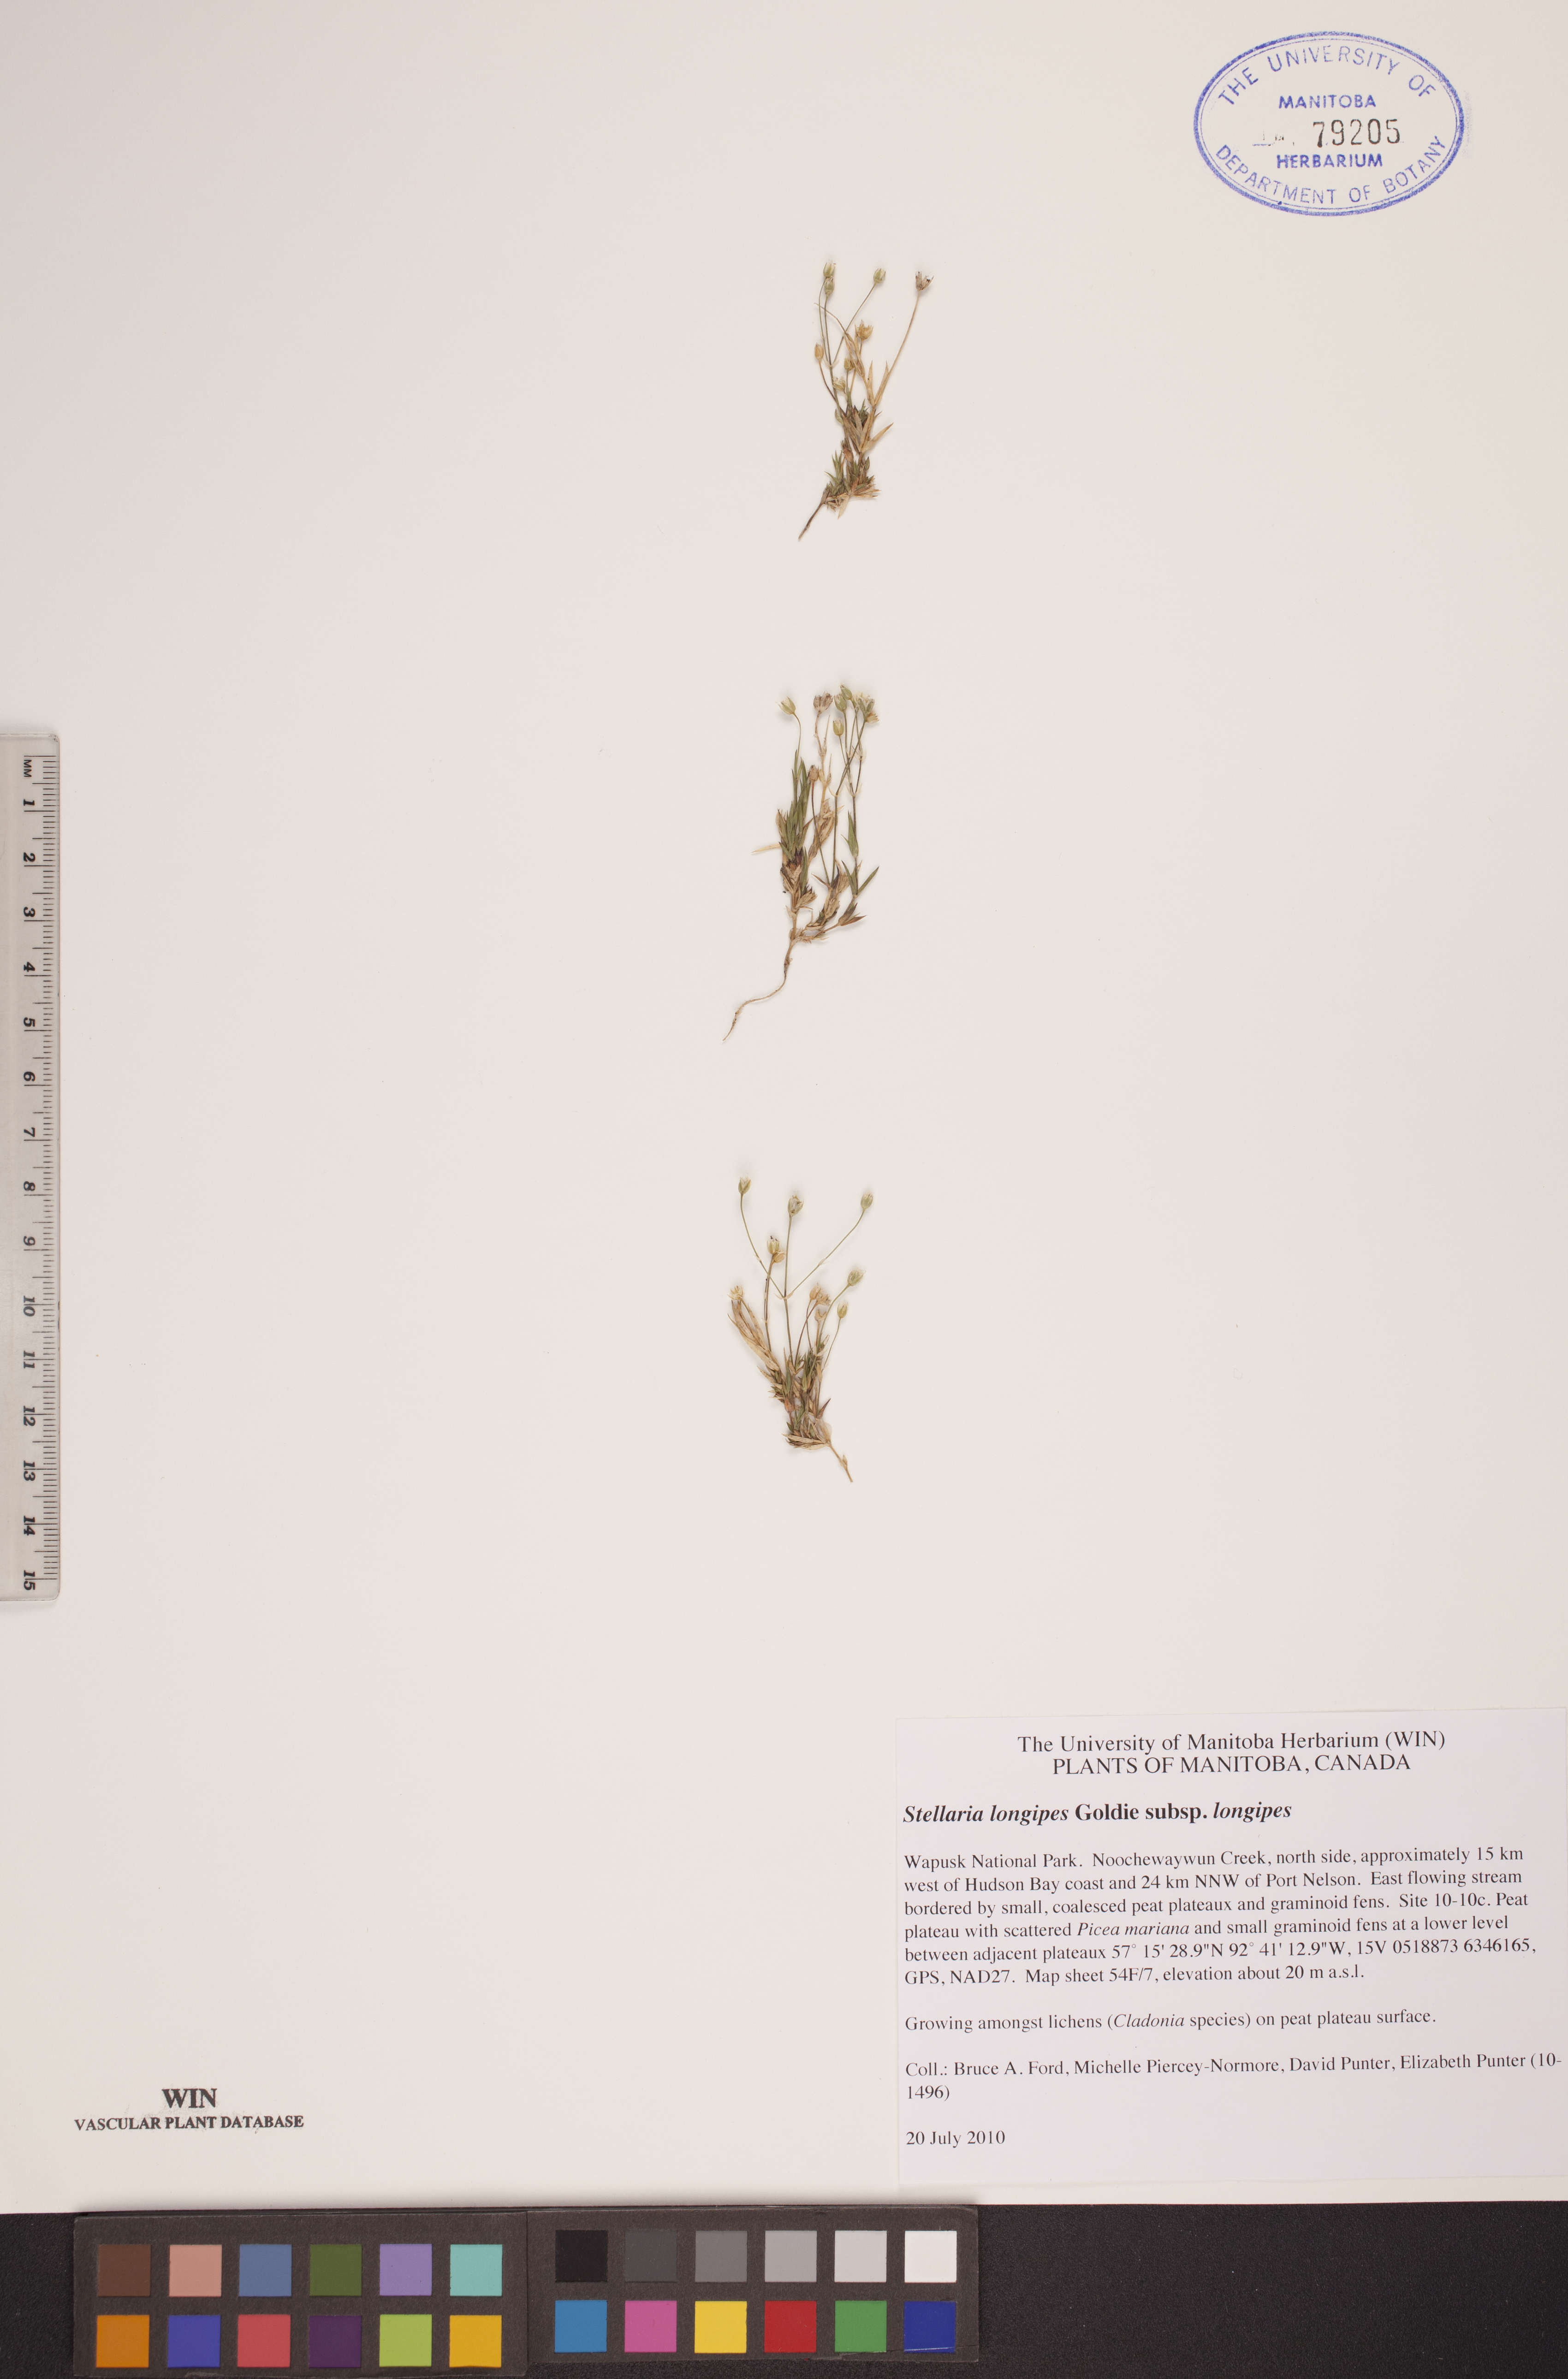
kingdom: Plantae
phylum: Tracheophyta
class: Magnoliopsida
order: Caryophyllales
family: Caryophyllaceae
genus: Stellaria
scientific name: Stellaria longipes
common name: Goldie's starwort
